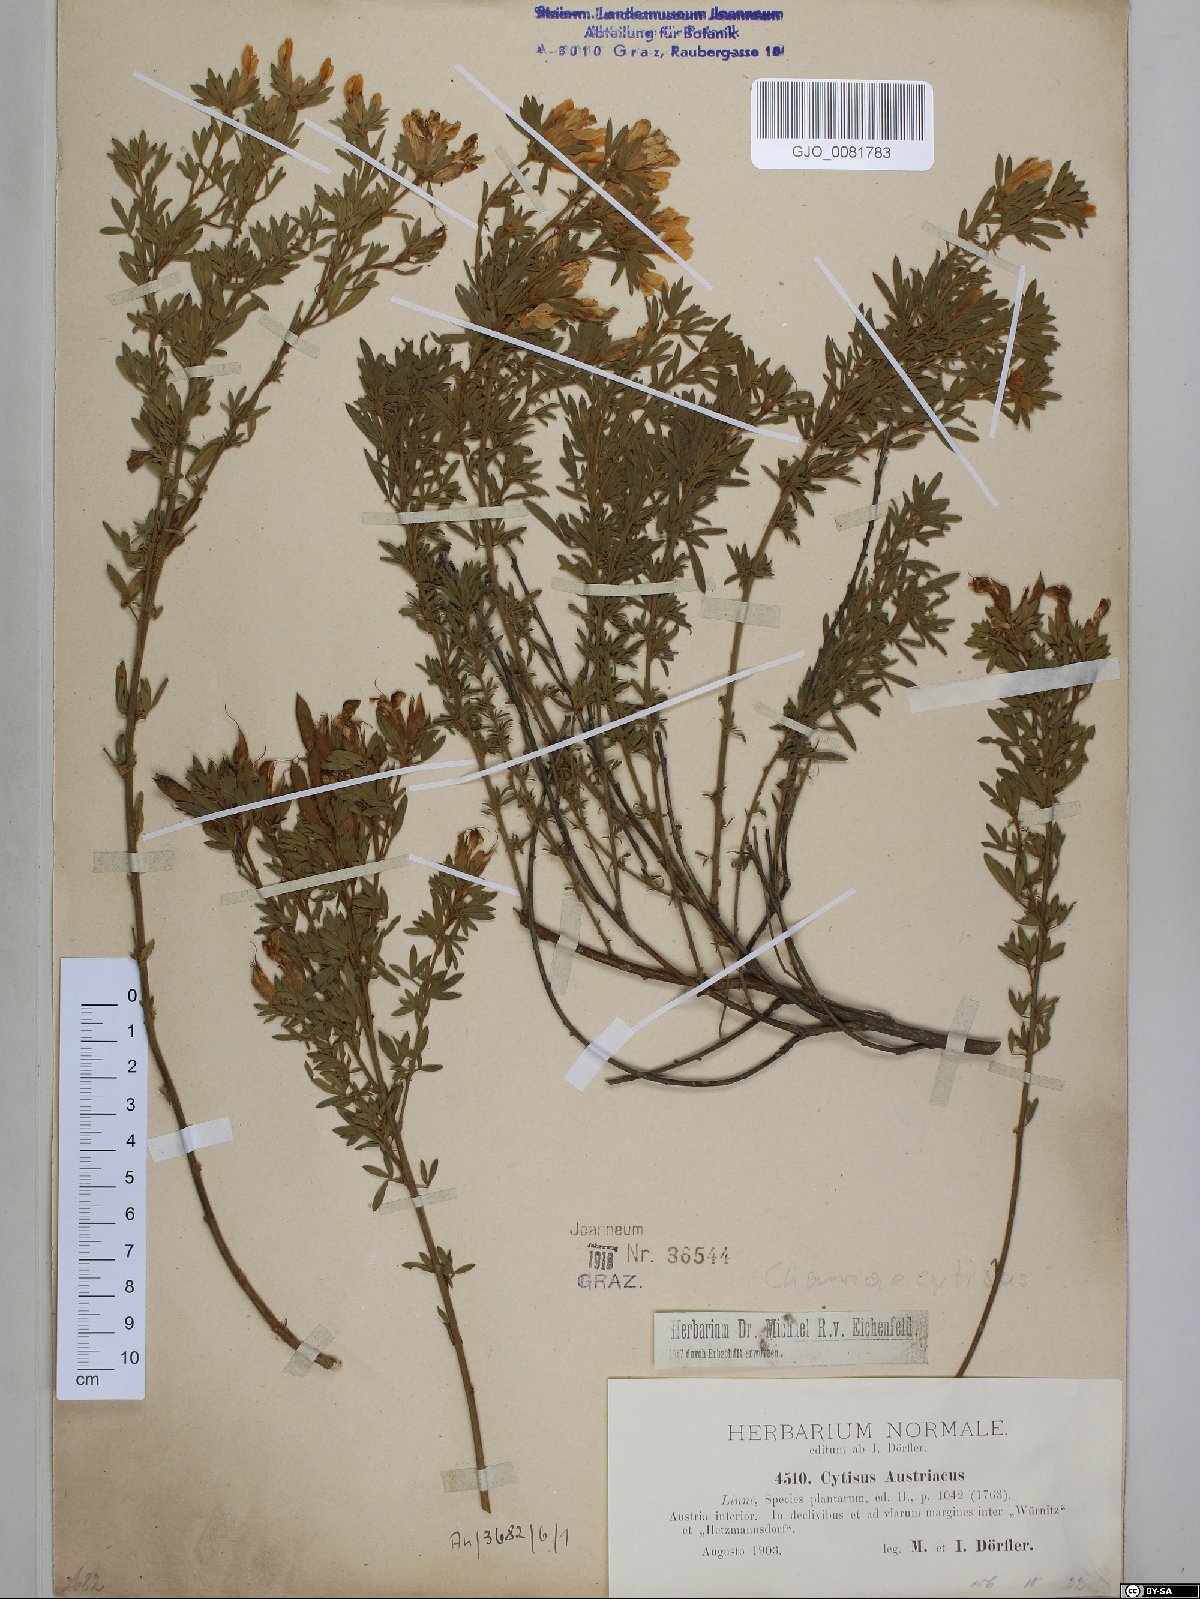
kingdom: Plantae
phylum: Tracheophyta
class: Magnoliopsida
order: Fabales
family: Fabaceae
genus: Chamaecytisus
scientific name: Chamaecytisus austriacus
